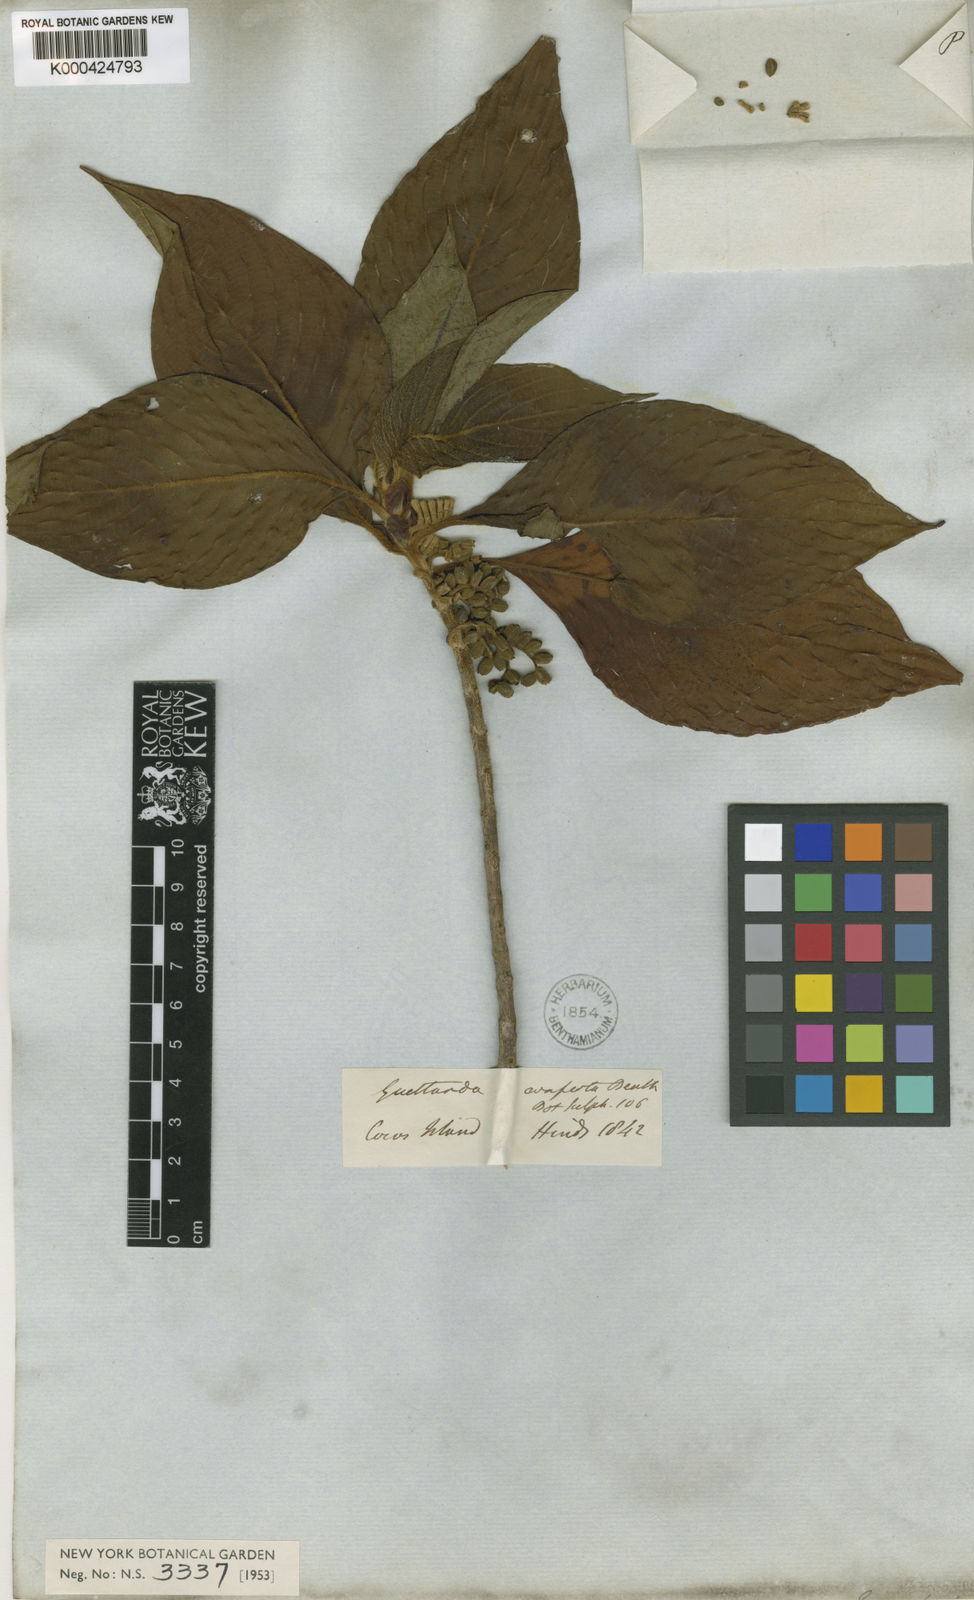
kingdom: Plantae
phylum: Tracheophyta
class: Magnoliopsida
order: Gentianales
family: Rubiaceae
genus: Tournefortiopsis
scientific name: Tournefortiopsis conferta
